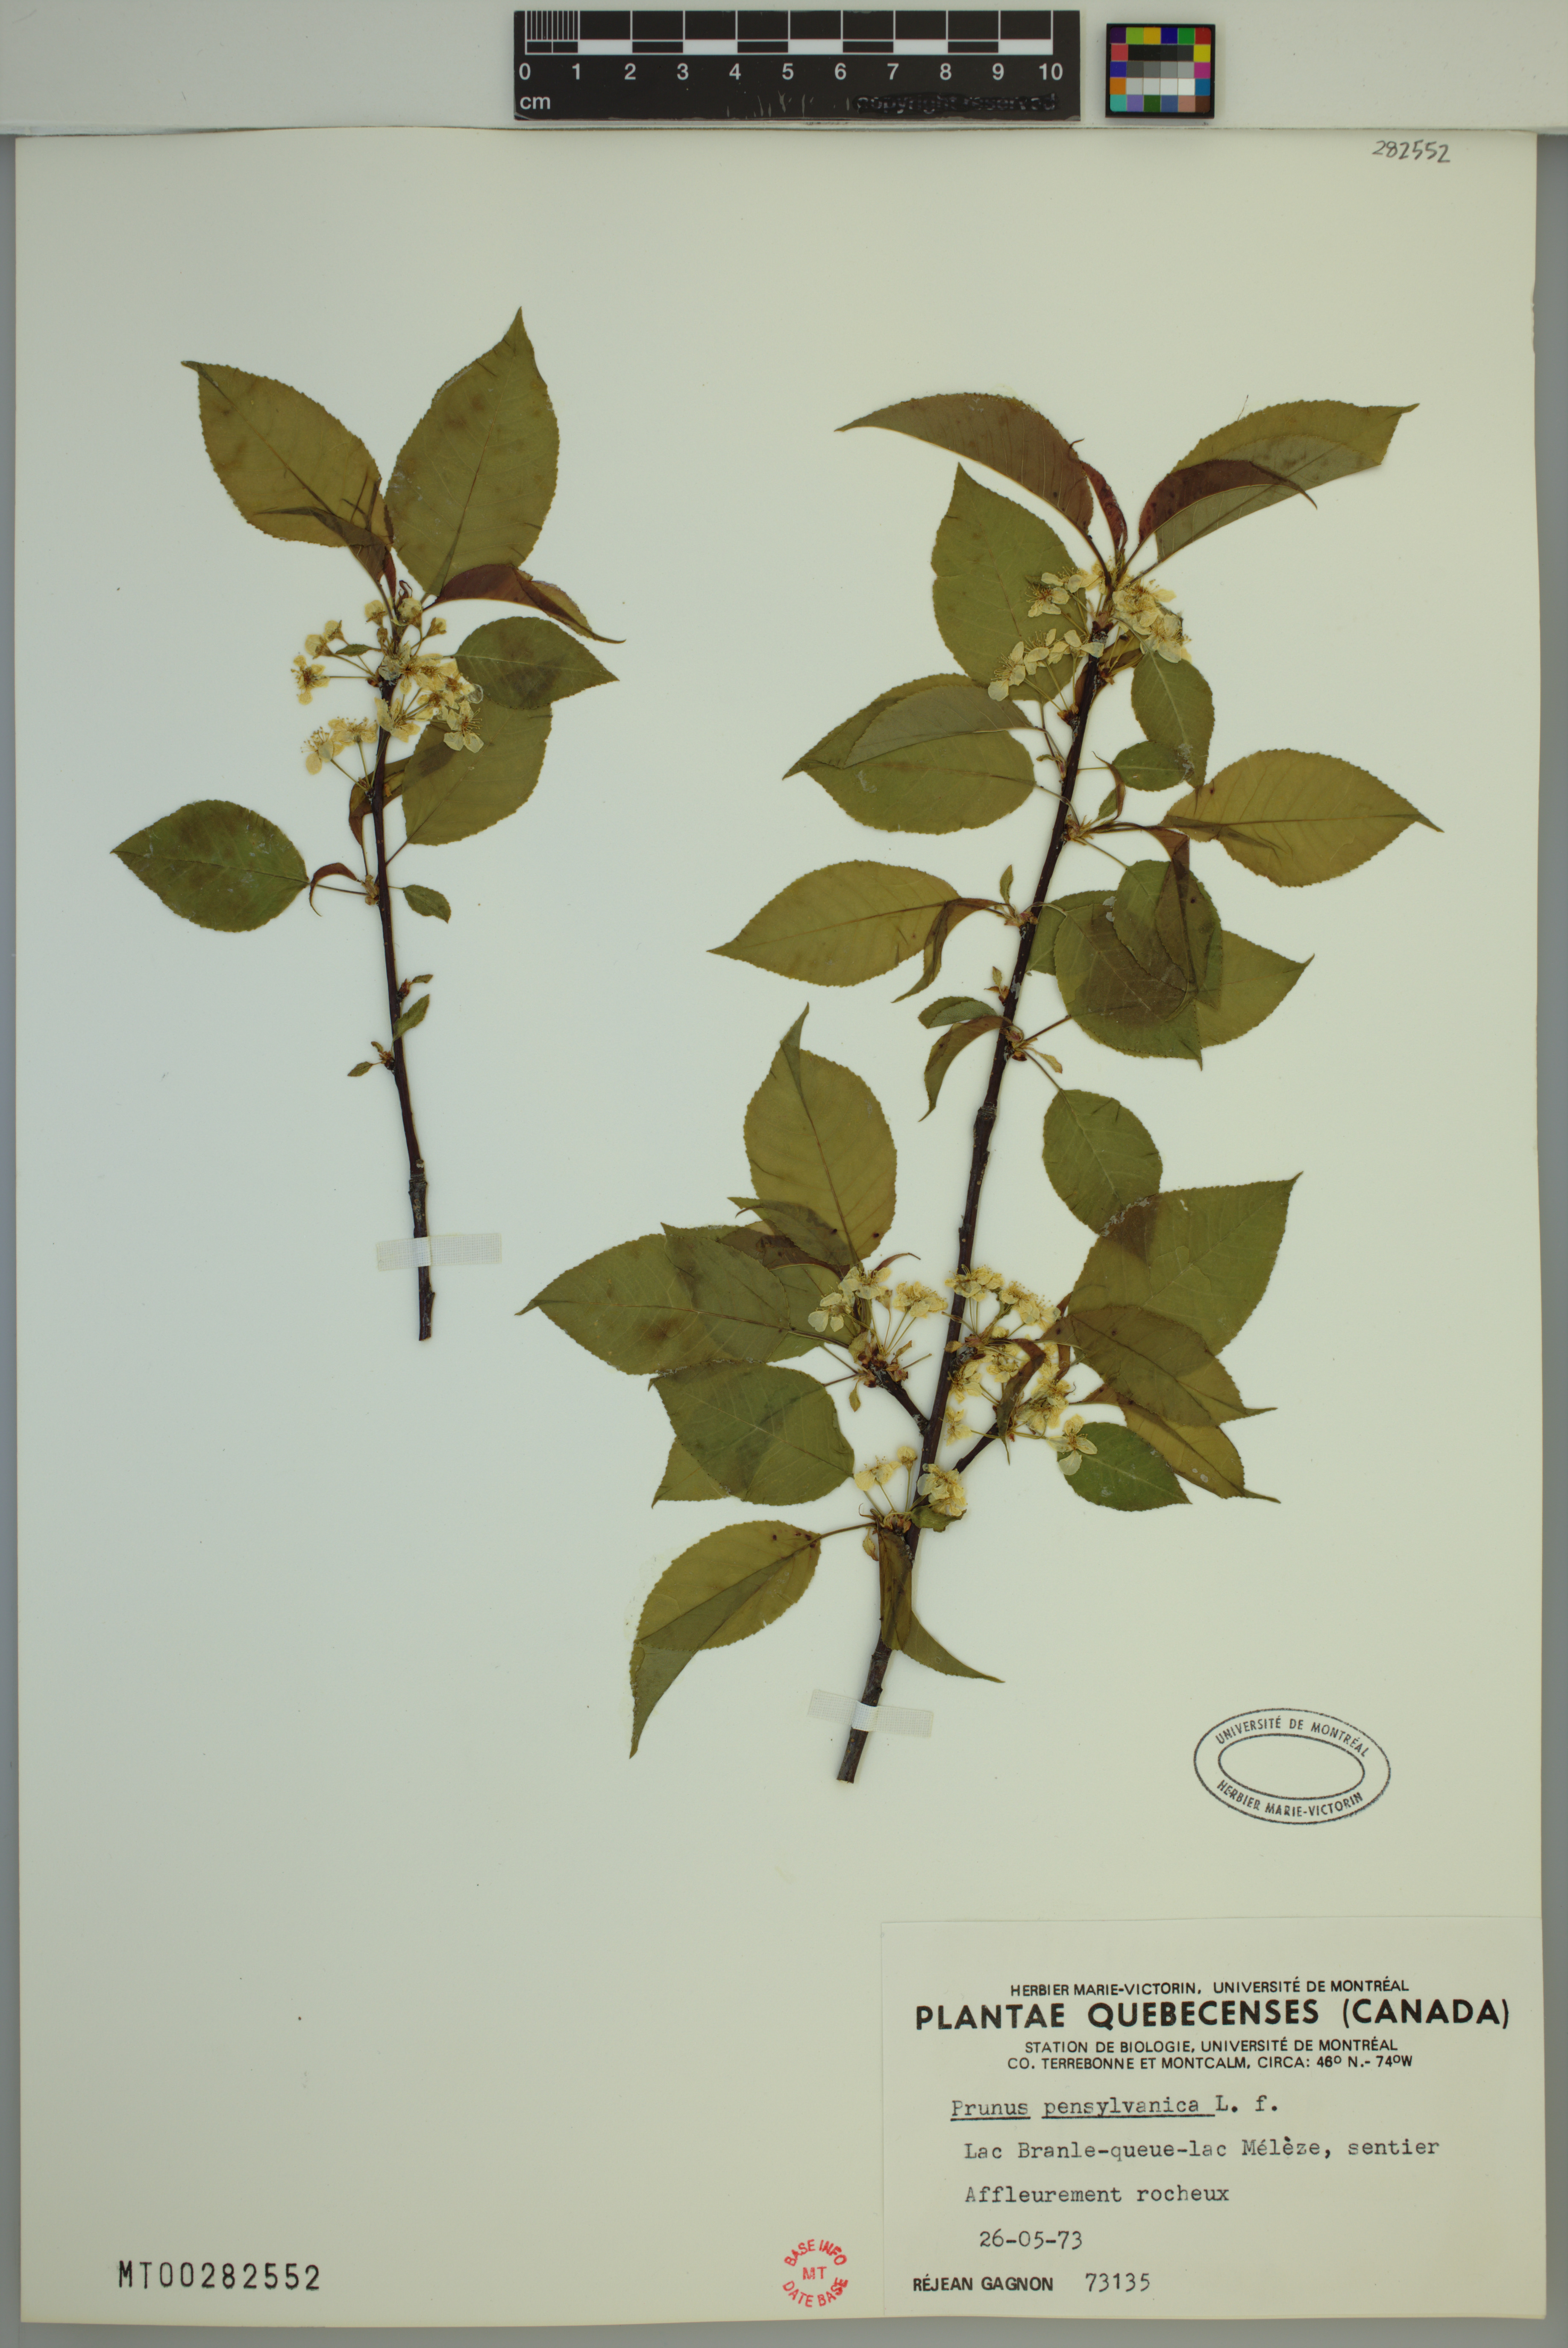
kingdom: Plantae
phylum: Tracheophyta
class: Magnoliopsida
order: Rosales
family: Rosaceae
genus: Prunus
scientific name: Prunus pensylvanica
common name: Pin cherry
